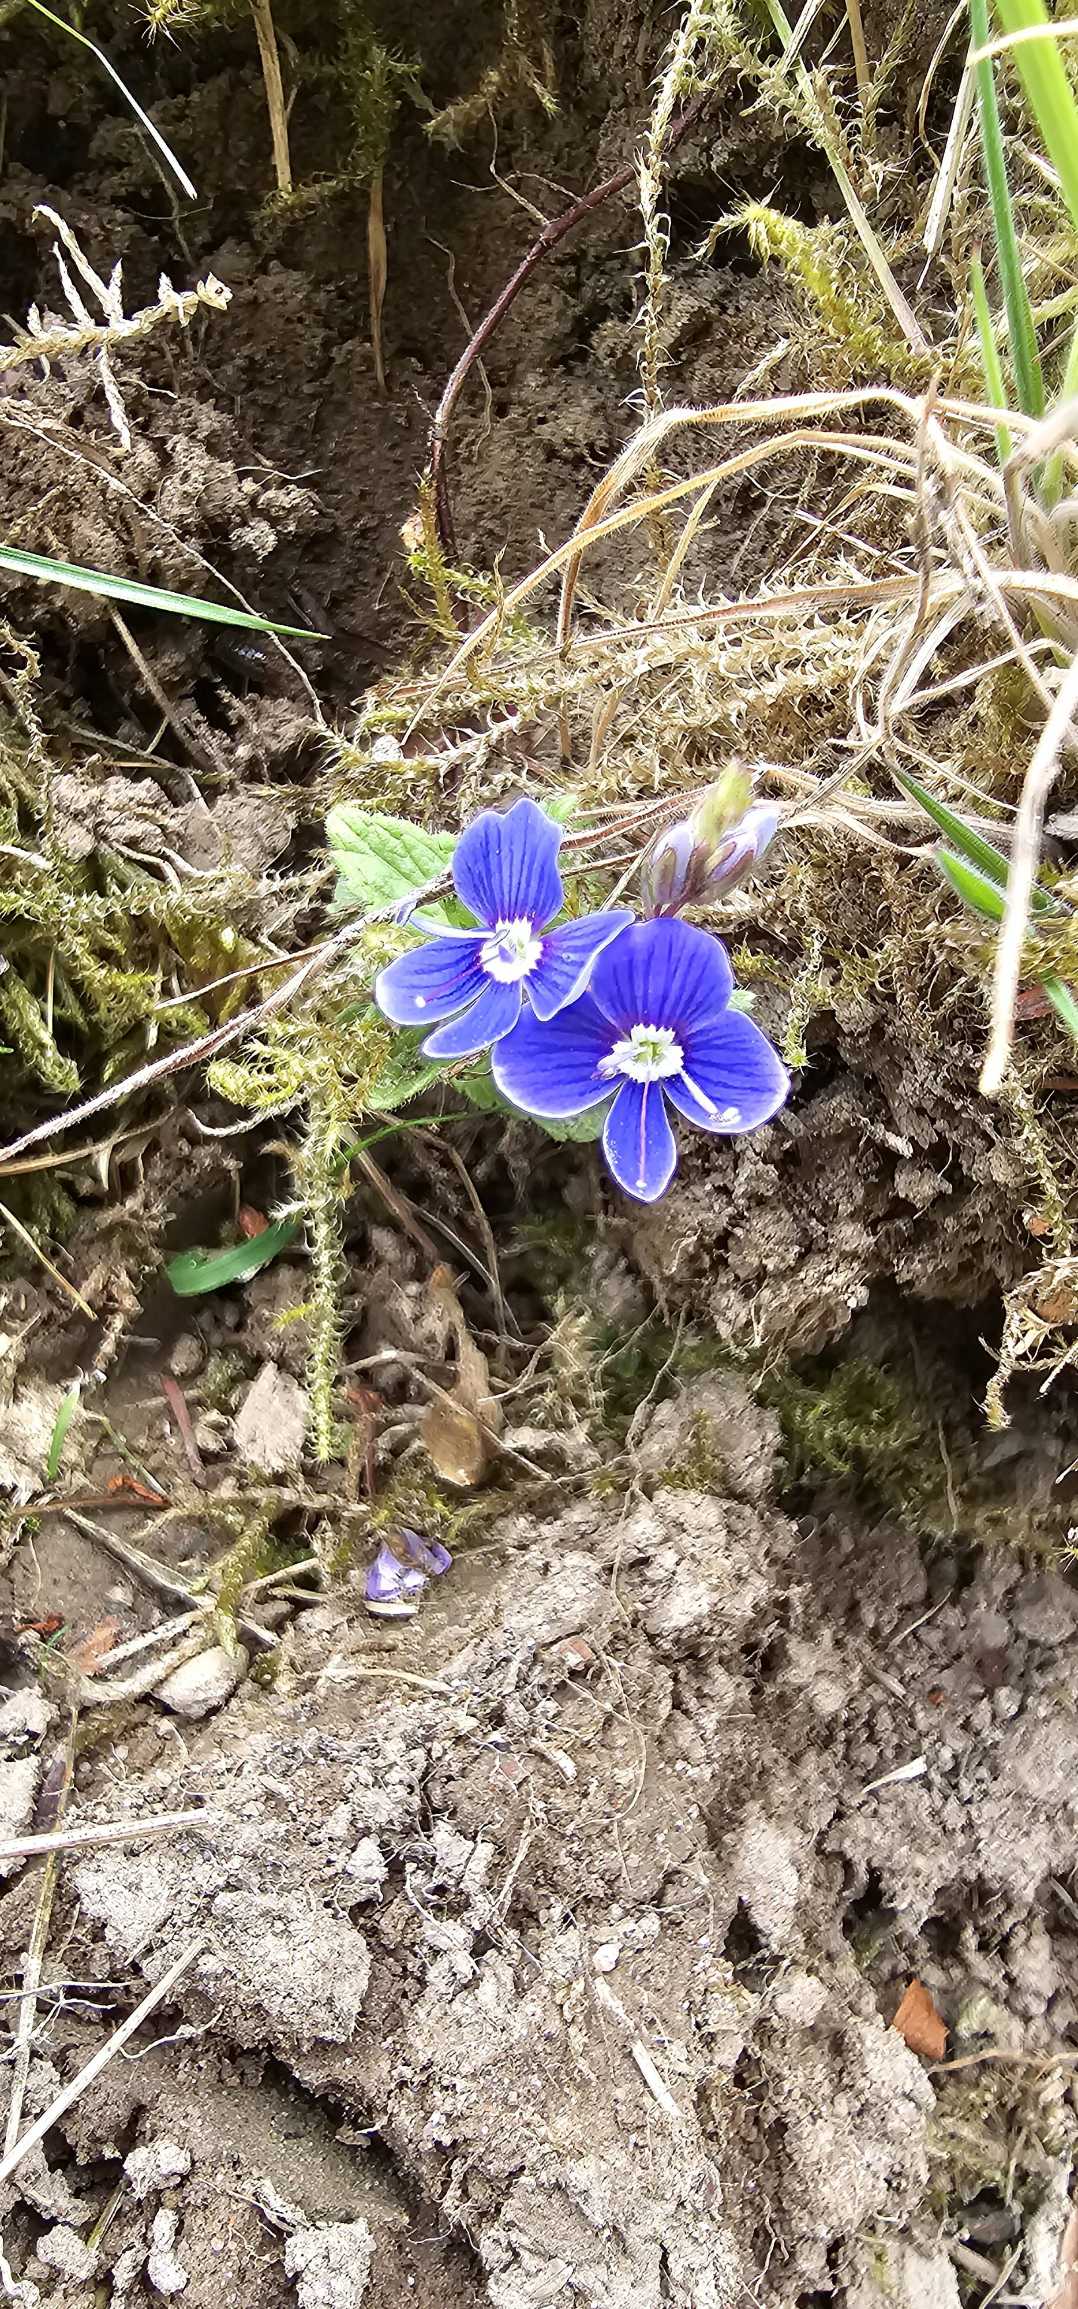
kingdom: Plantae
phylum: Tracheophyta
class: Magnoliopsida
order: Lamiales
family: Plantaginaceae
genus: Veronica
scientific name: Veronica chamaedrys
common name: Tveskægget ærenpris
